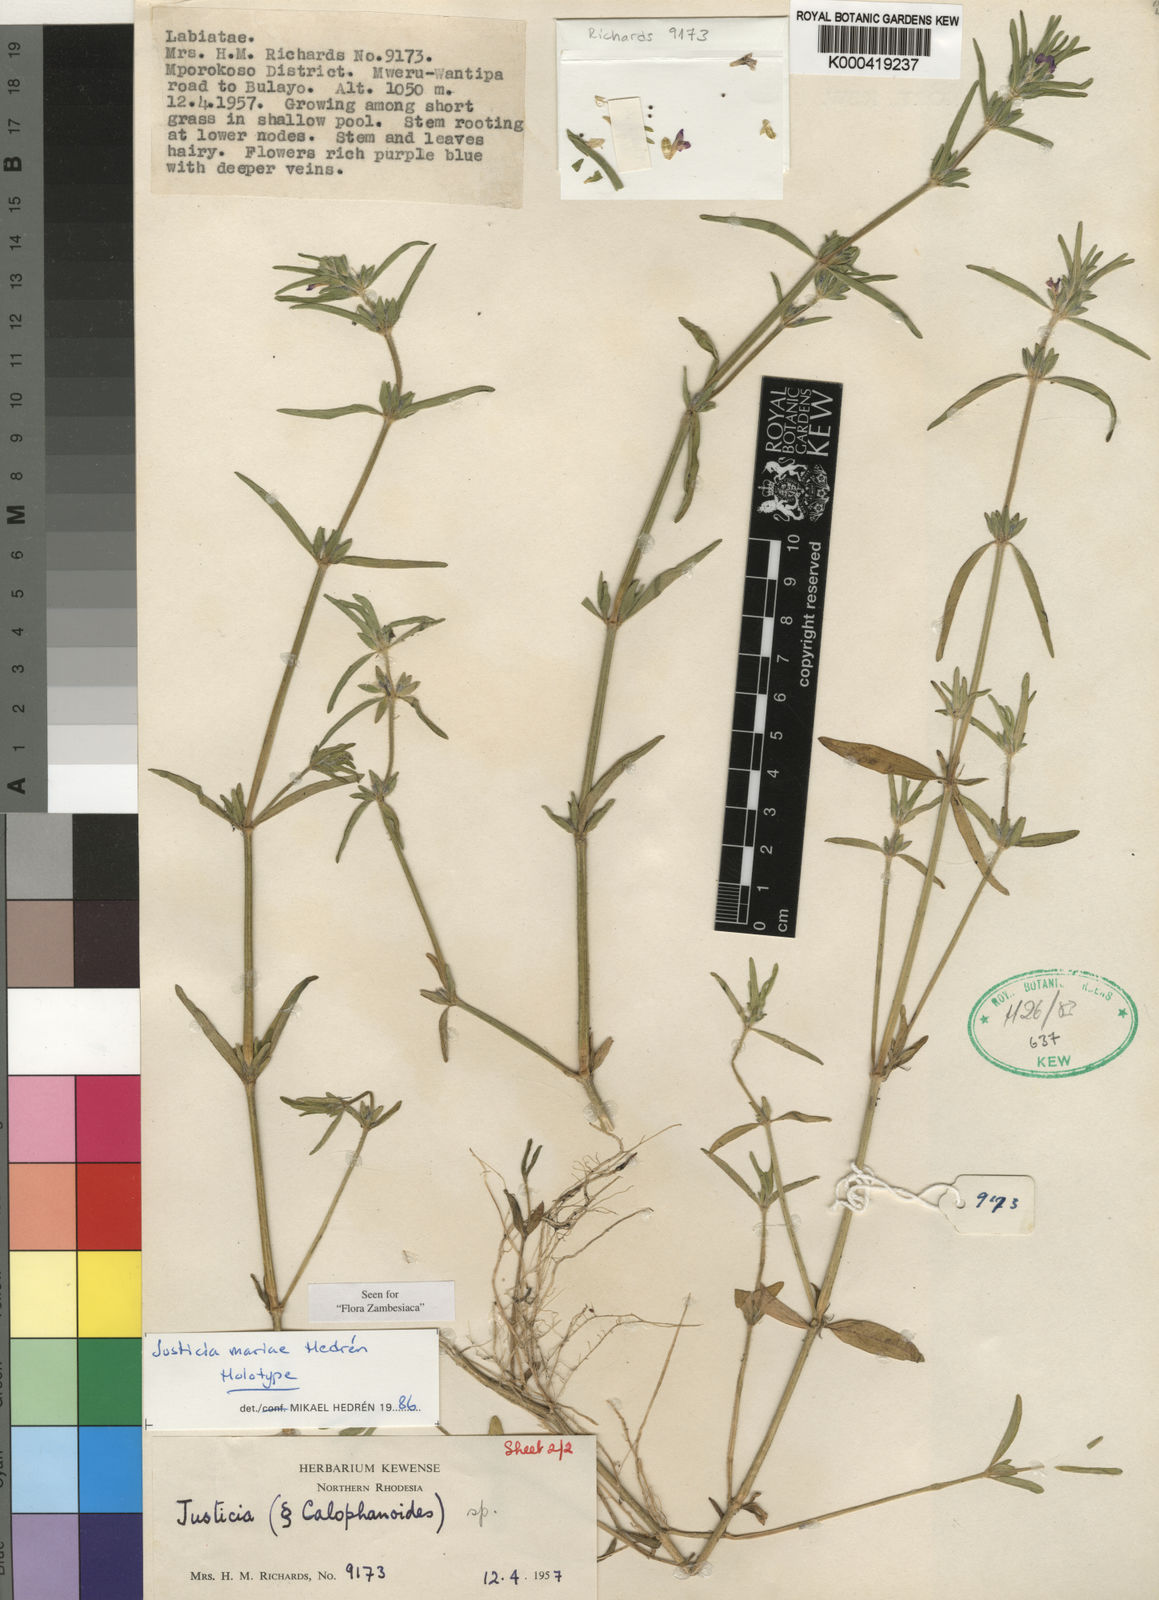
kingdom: Plantae
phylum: Tracheophyta
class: Magnoliopsida
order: Lamiales
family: Acanthaceae
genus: Justicia
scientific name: Justicia
